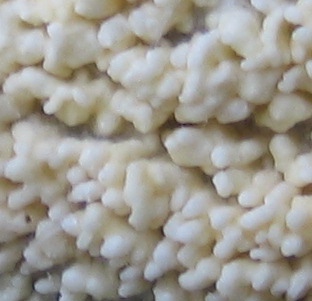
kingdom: Fungi
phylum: Basidiomycota
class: Agaricomycetes
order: Corticiales
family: Corticiaceae
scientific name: Corticiaceae
